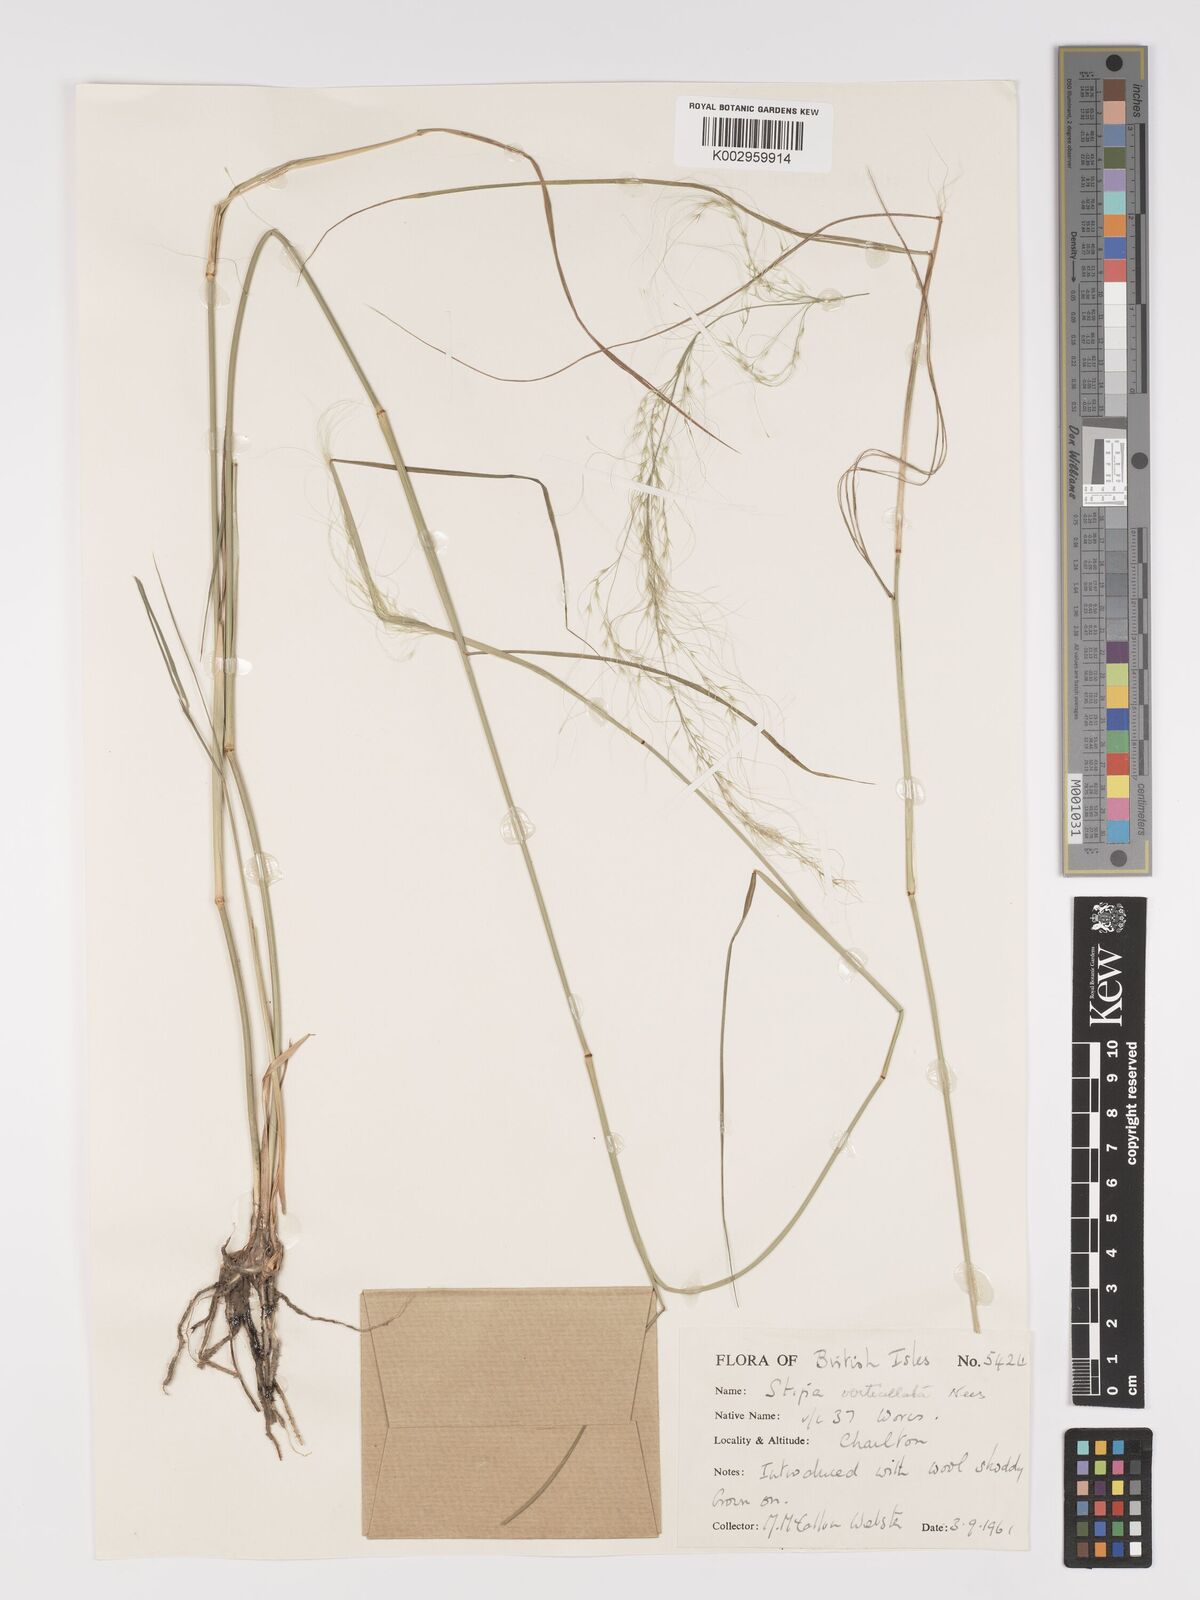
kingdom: Plantae
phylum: Tracheophyta
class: Liliopsida
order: Poales
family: Poaceae
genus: Austrostipa
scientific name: Austrostipa verticillata
